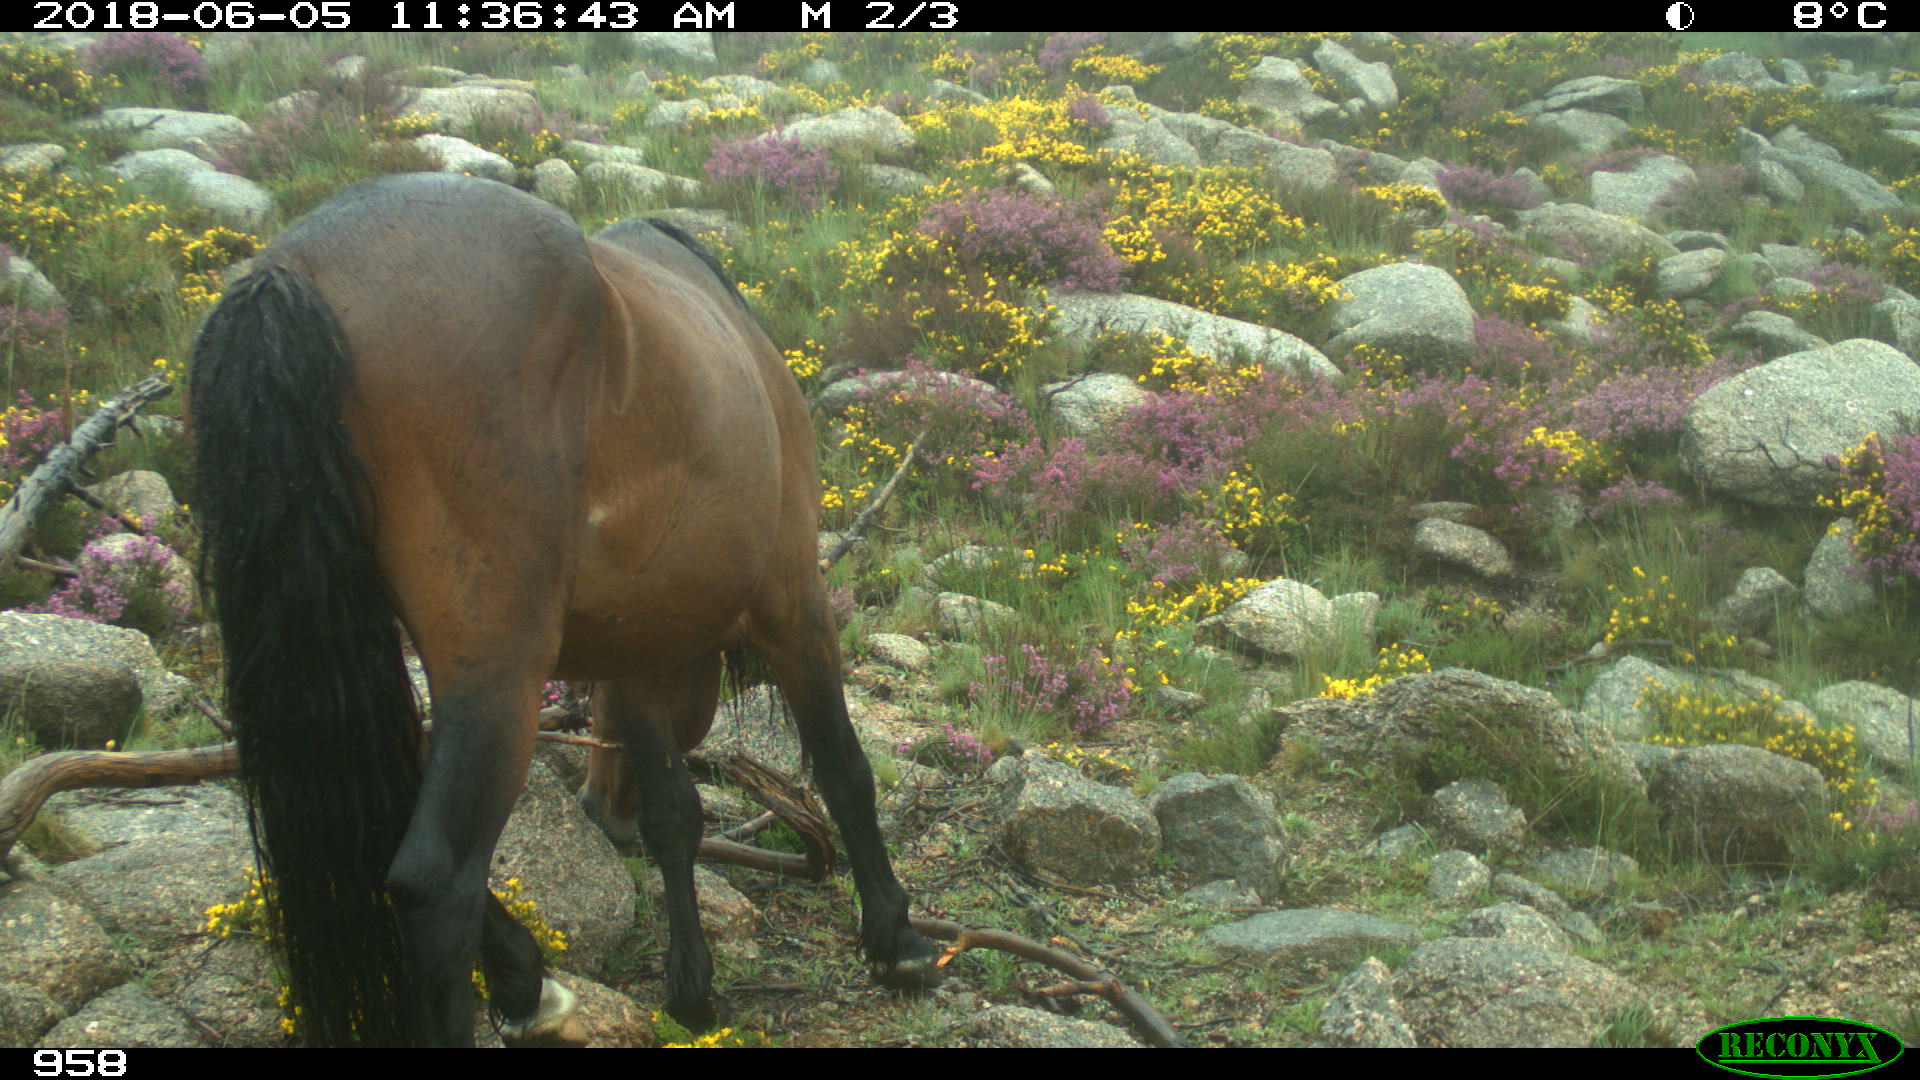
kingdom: Animalia
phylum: Chordata
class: Mammalia
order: Perissodactyla
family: Equidae
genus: Equus
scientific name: Equus caballus
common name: Horse
